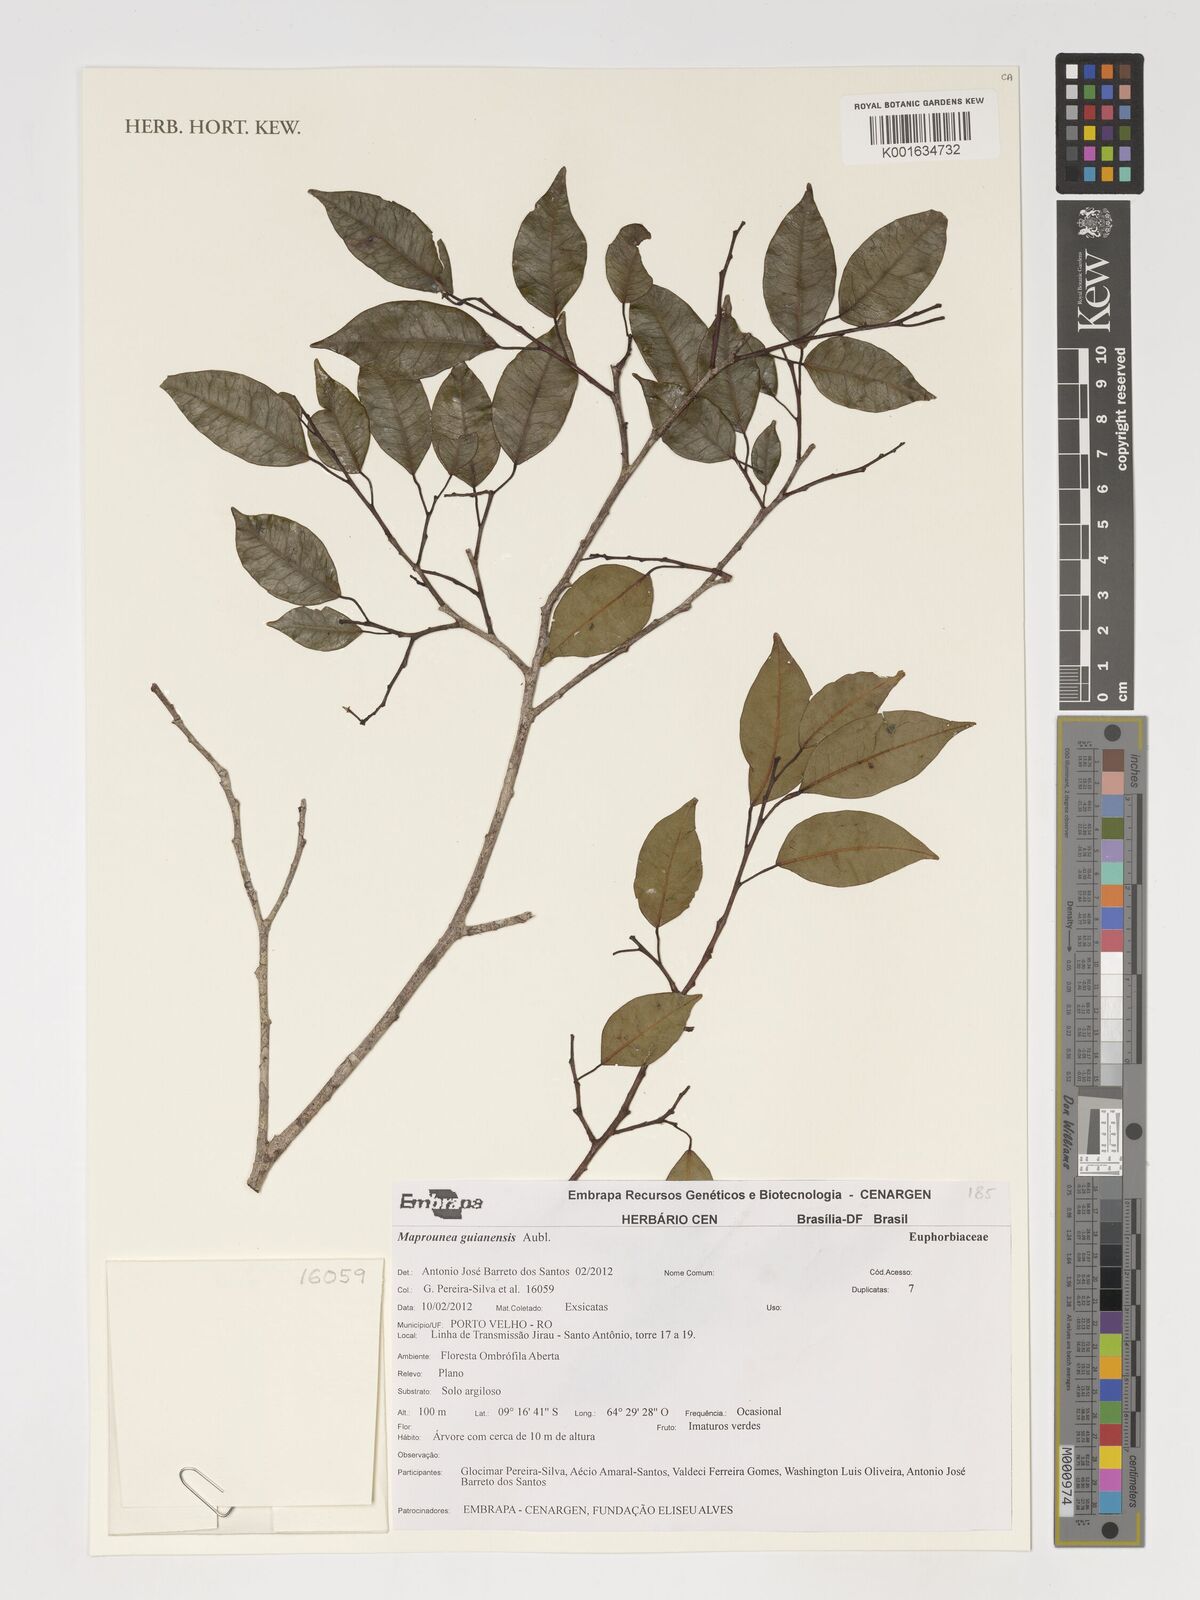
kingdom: Plantae
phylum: Tracheophyta
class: Magnoliopsida
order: Malpighiales
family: Euphorbiaceae
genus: Maprounea
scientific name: Maprounea guianensis
